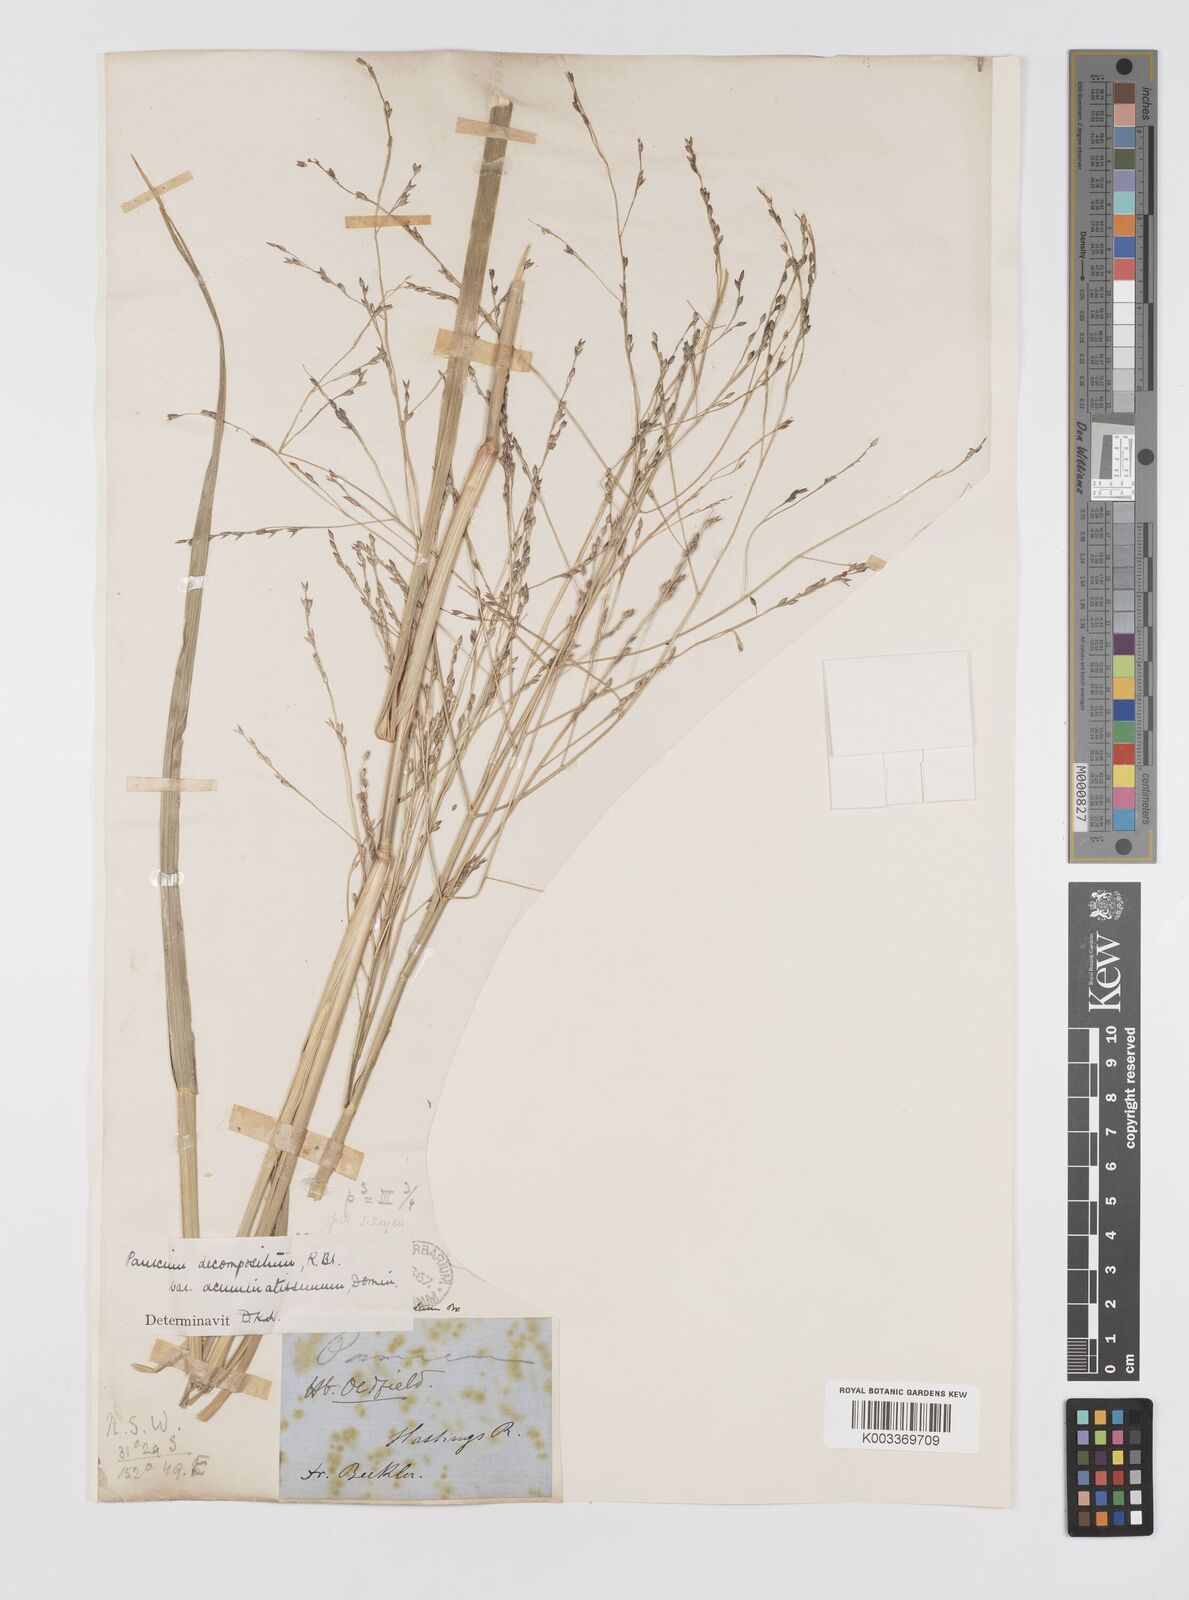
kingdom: Plantae
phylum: Tracheophyta
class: Liliopsida
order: Poales
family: Poaceae
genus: Panicum
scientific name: Panicum decompositum
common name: Australian millet
